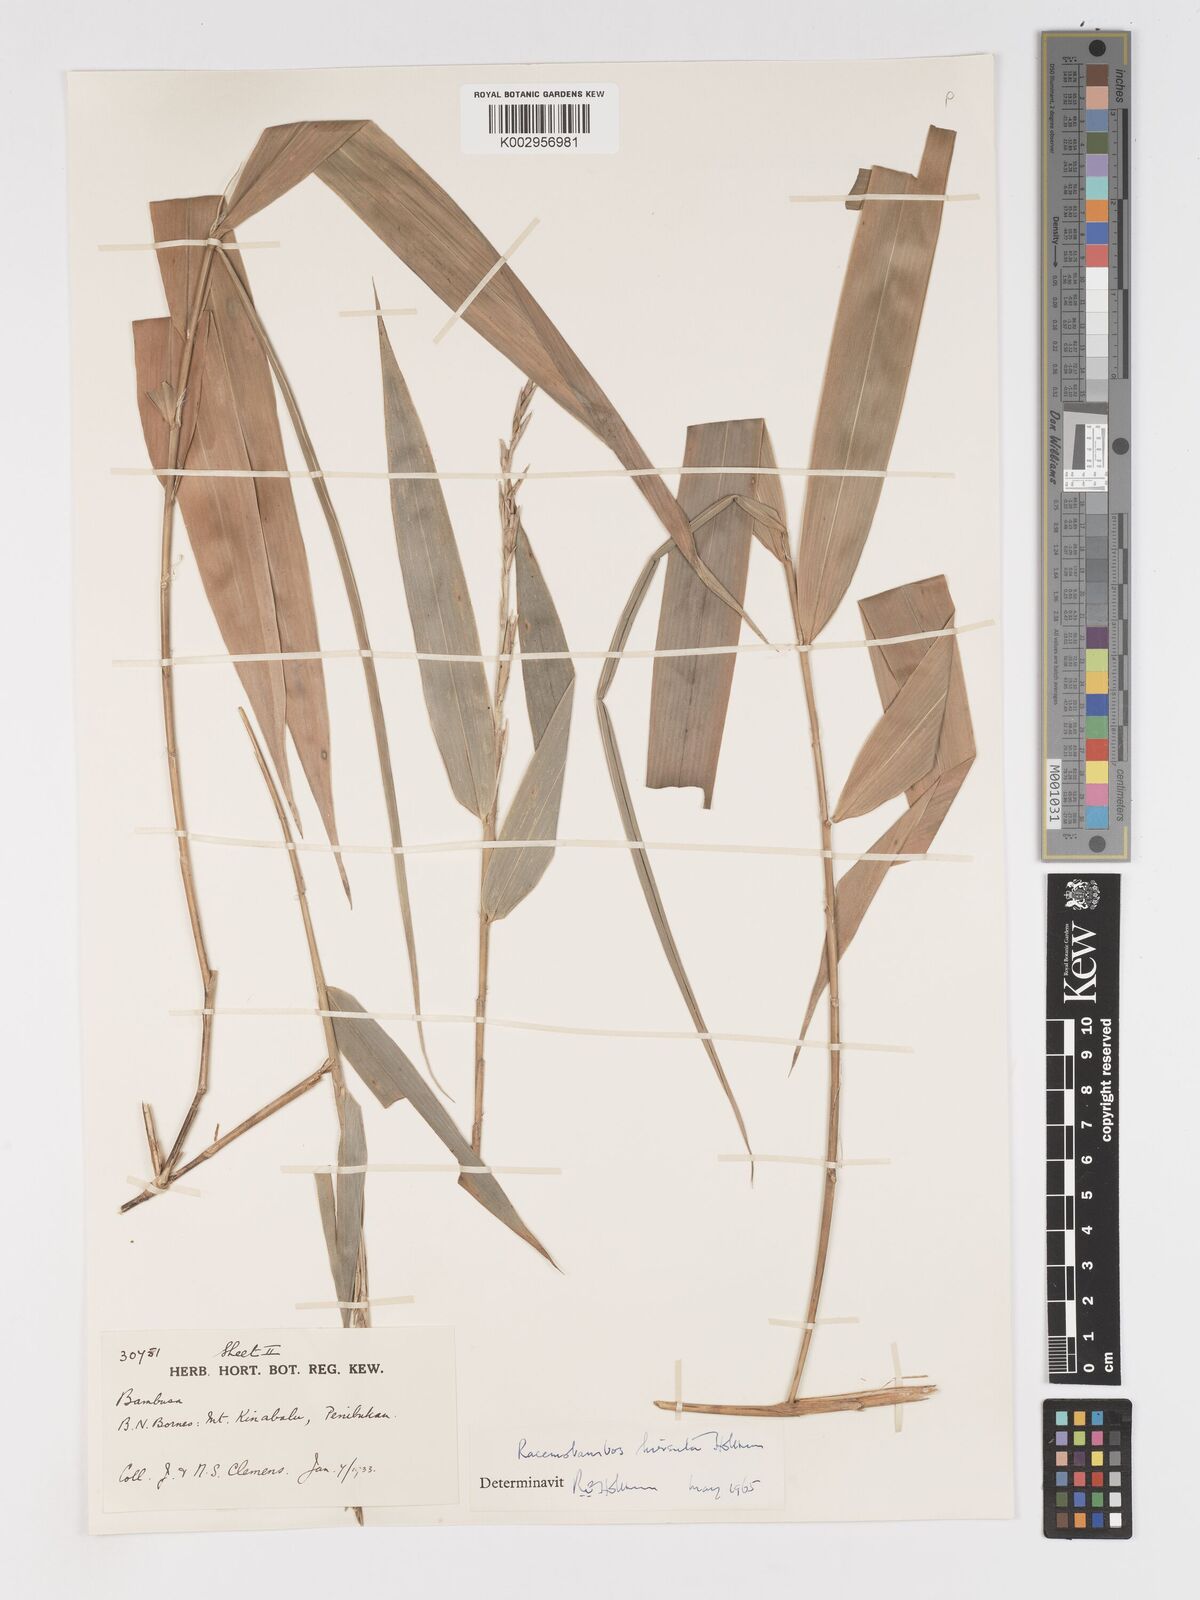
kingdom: Plantae
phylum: Tracheophyta
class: Liliopsida
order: Poales
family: Poaceae
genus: Racemobambos
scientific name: Racemobambos hirsuta
